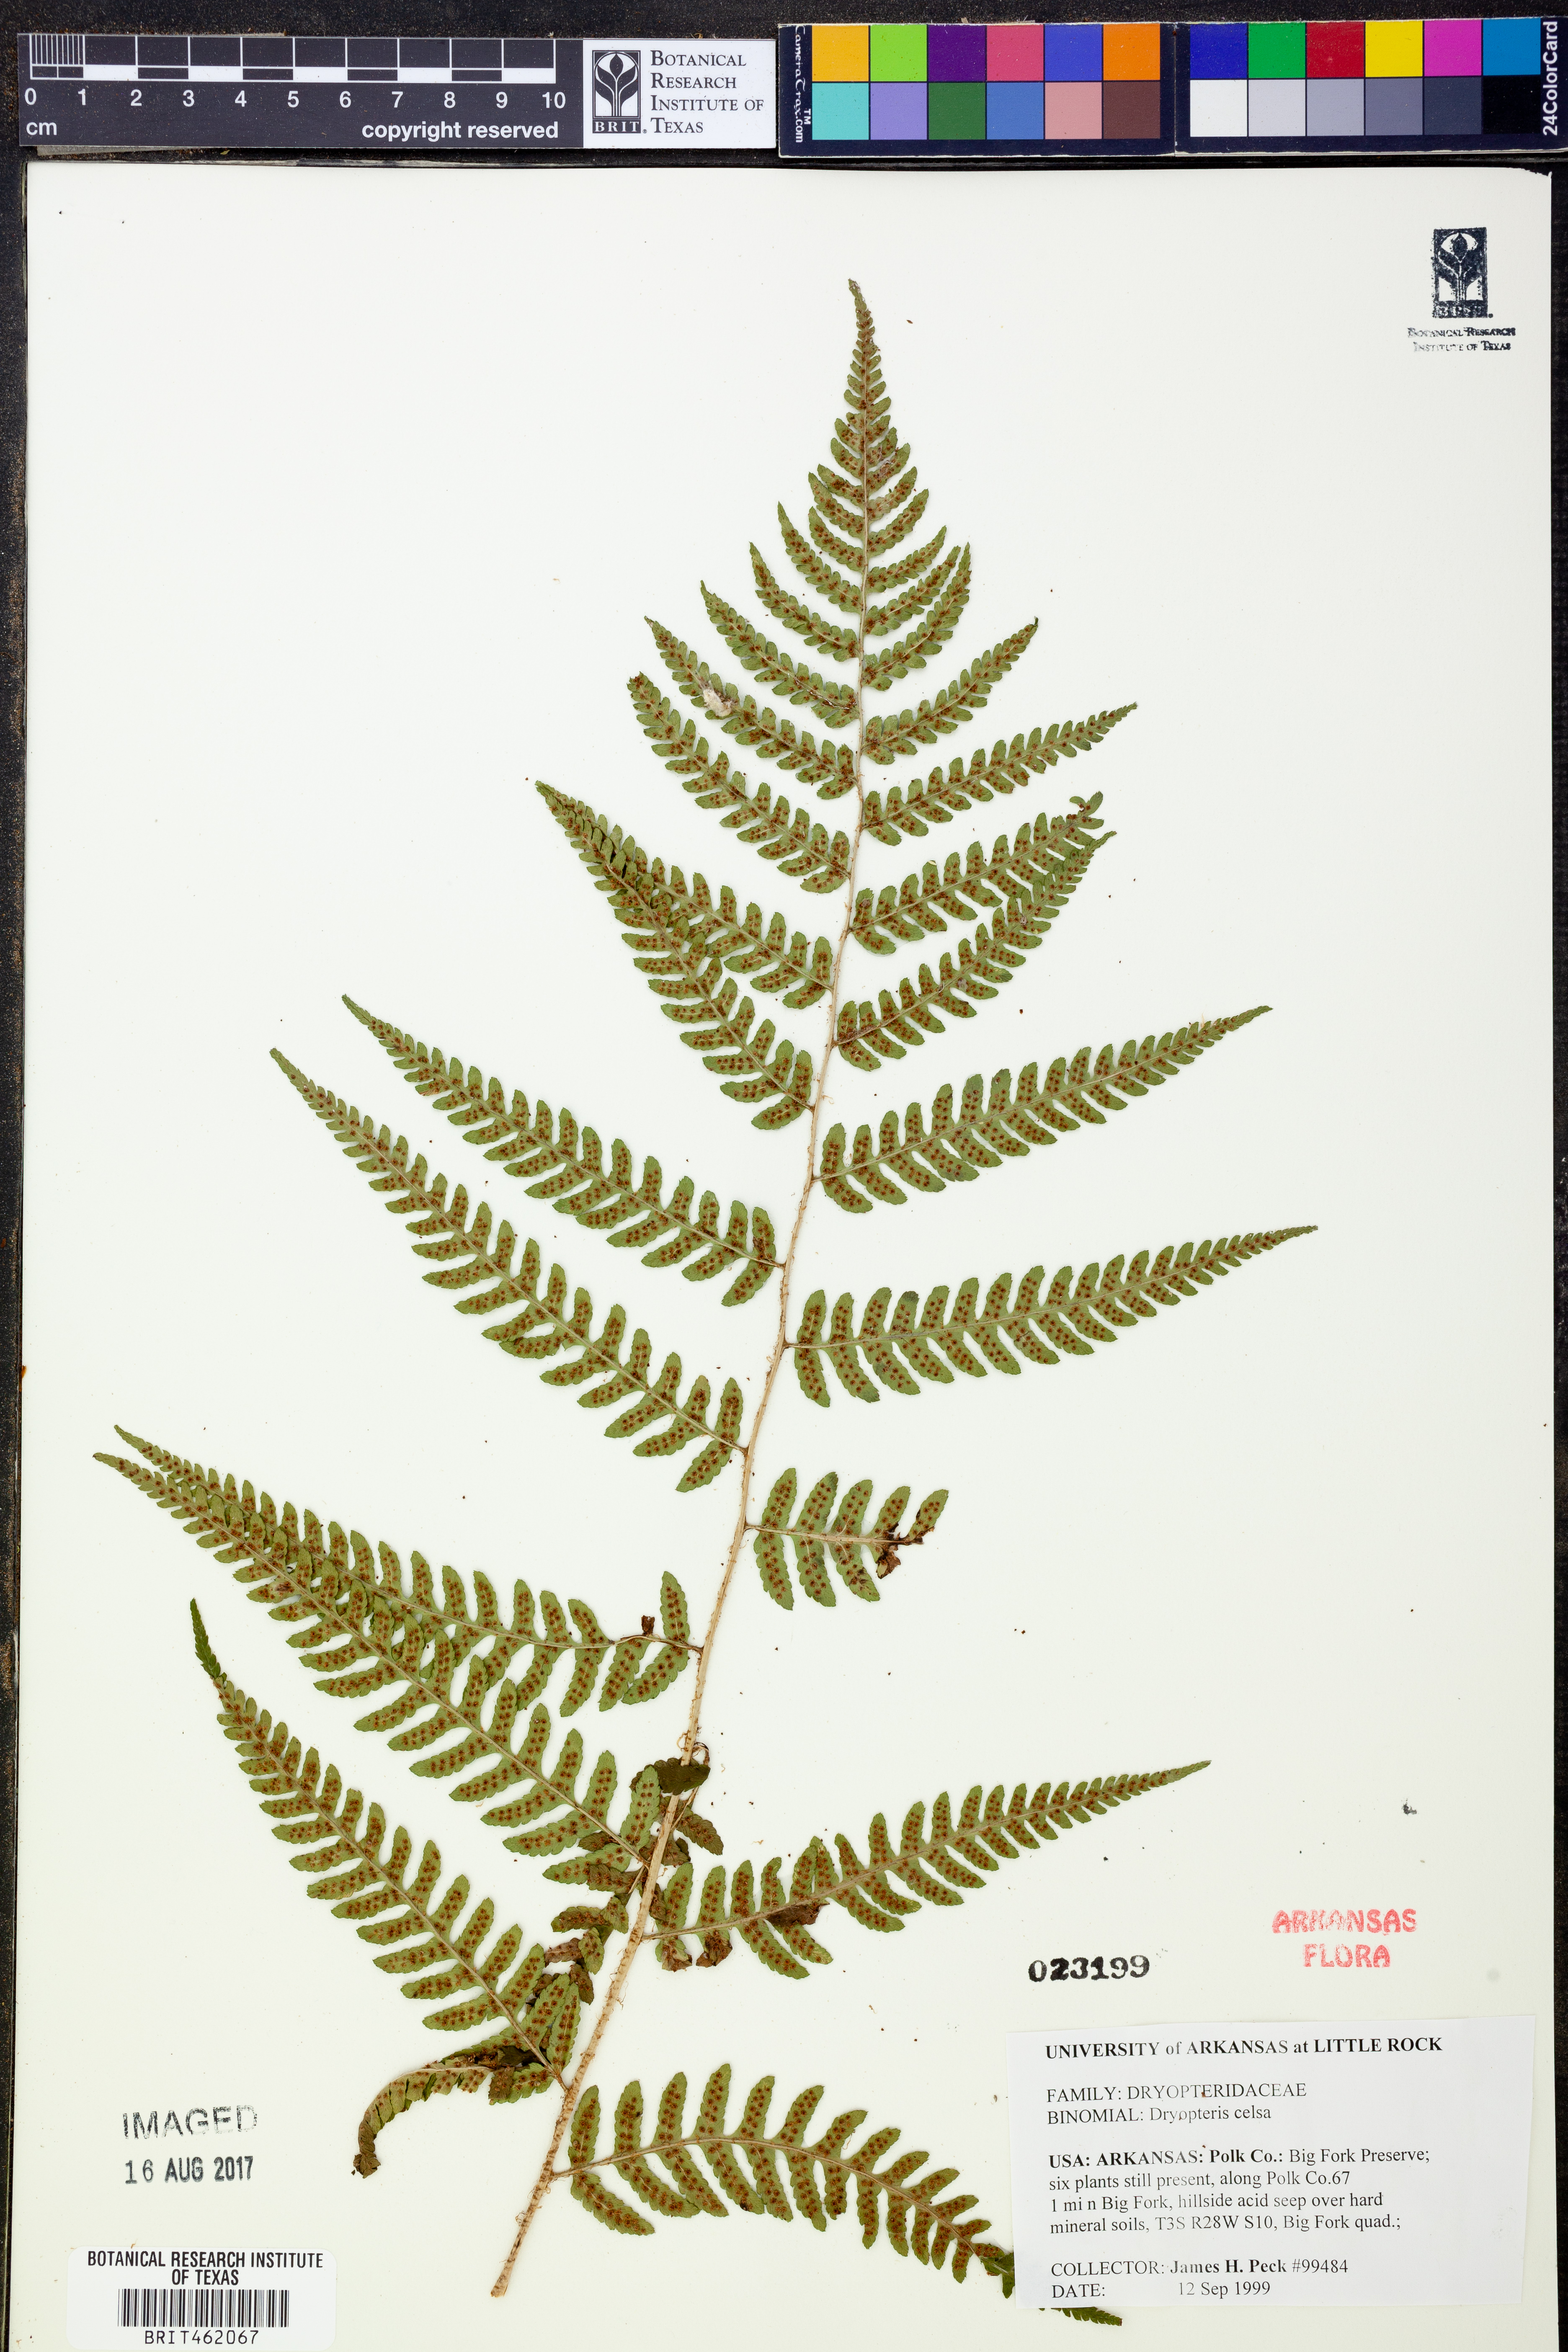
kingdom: Plantae
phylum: Tracheophyta
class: Polypodiopsida
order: Polypodiales
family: Dryopteridaceae
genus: Dryopteris
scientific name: Dryopteris celsa
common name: Log fern
